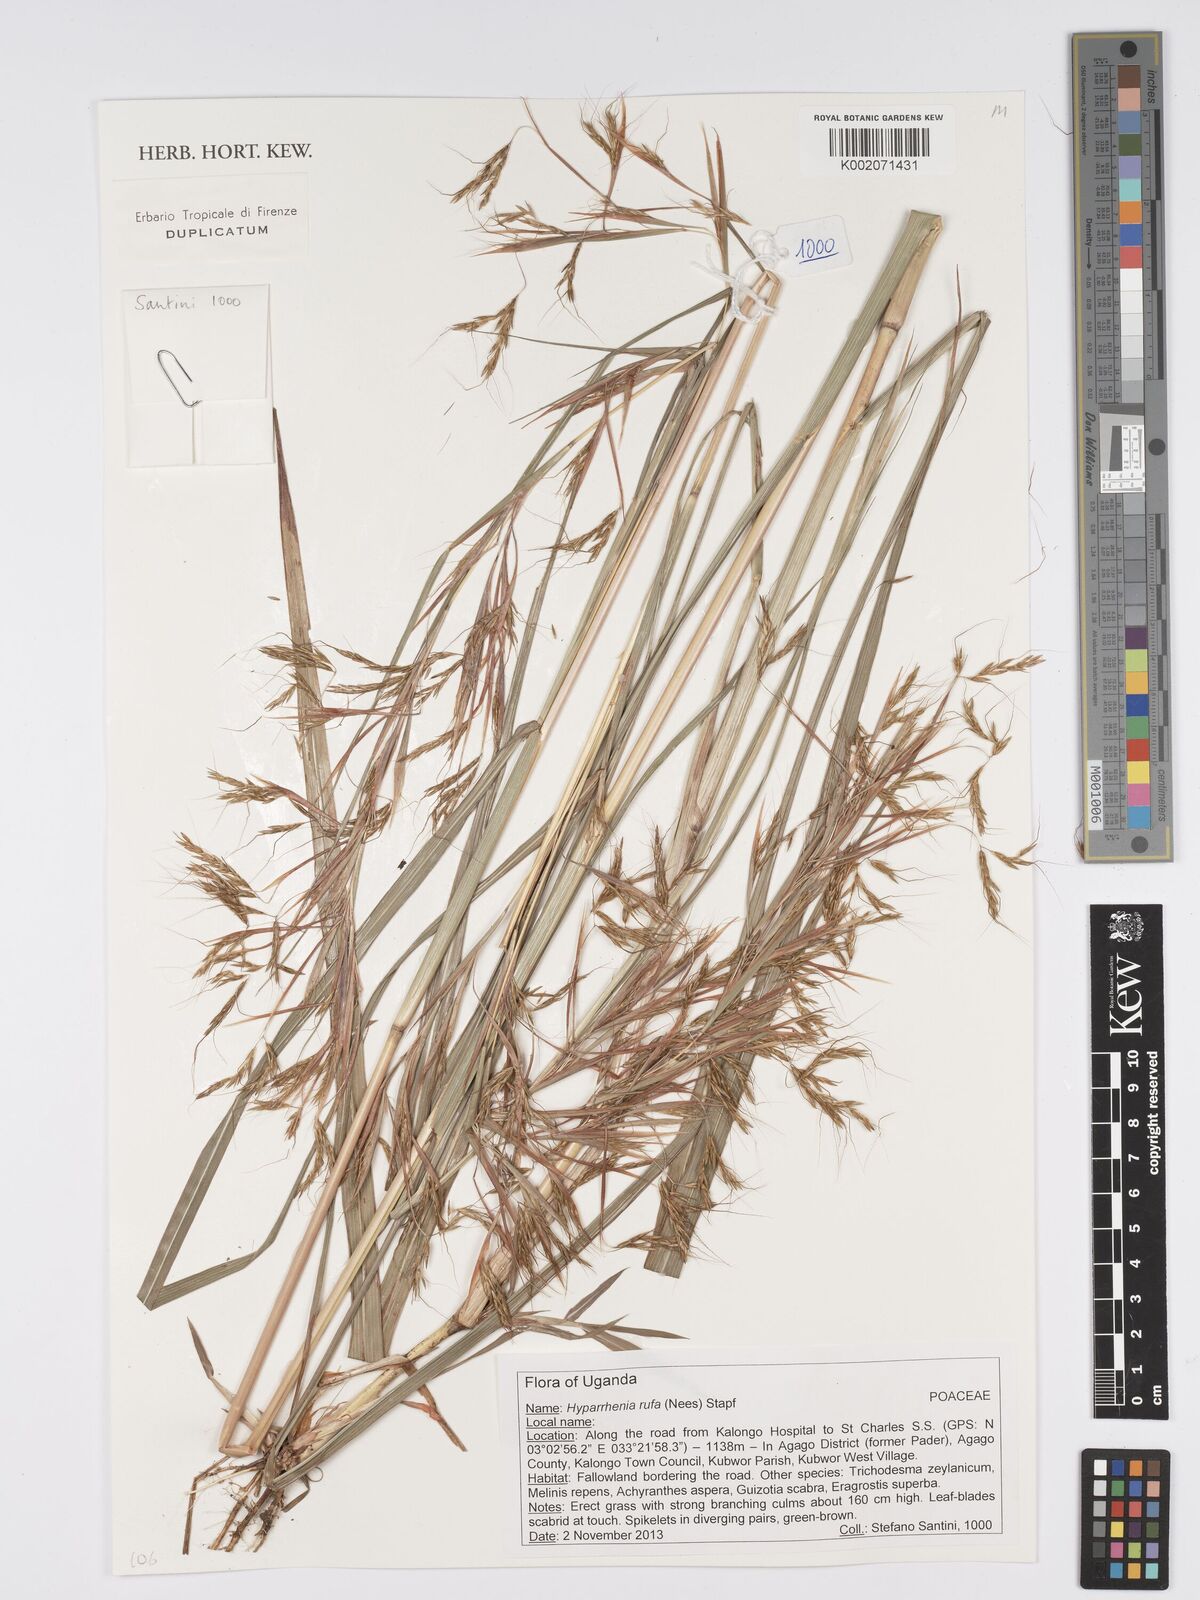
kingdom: Plantae
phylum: Tracheophyta
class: Liliopsida
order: Poales
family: Poaceae
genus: Hyparrhenia
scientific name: Hyparrhenia rufa
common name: Jaraguagrass
